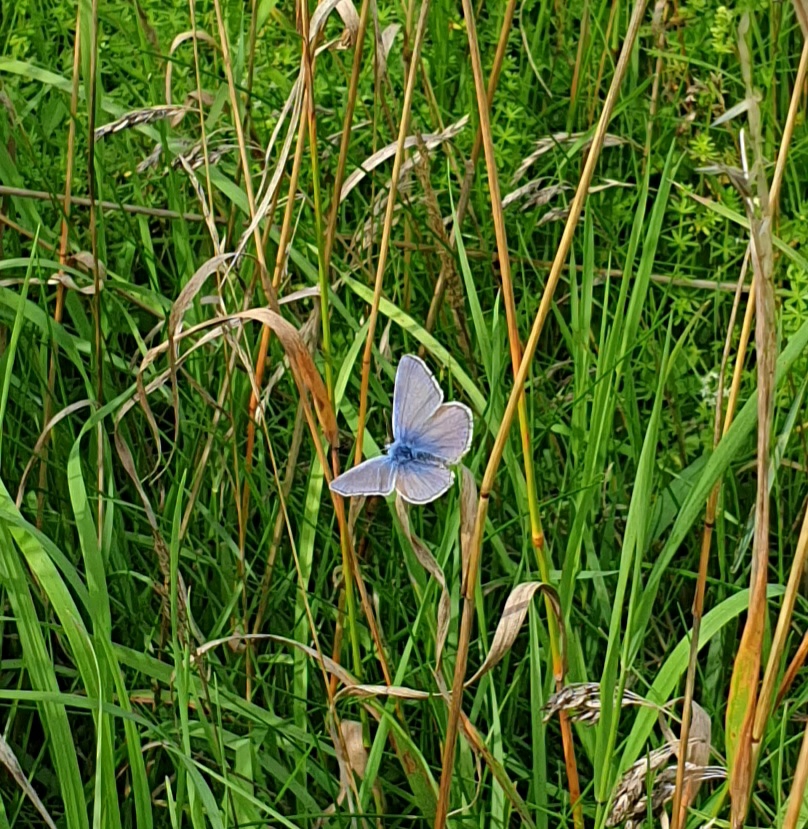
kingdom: Animalia
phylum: Arthropoda
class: Insecta
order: Lepidoptera
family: Lycaenidae
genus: Polyommatus
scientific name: Polyommatus icarus
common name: Almindelig blåfugl
